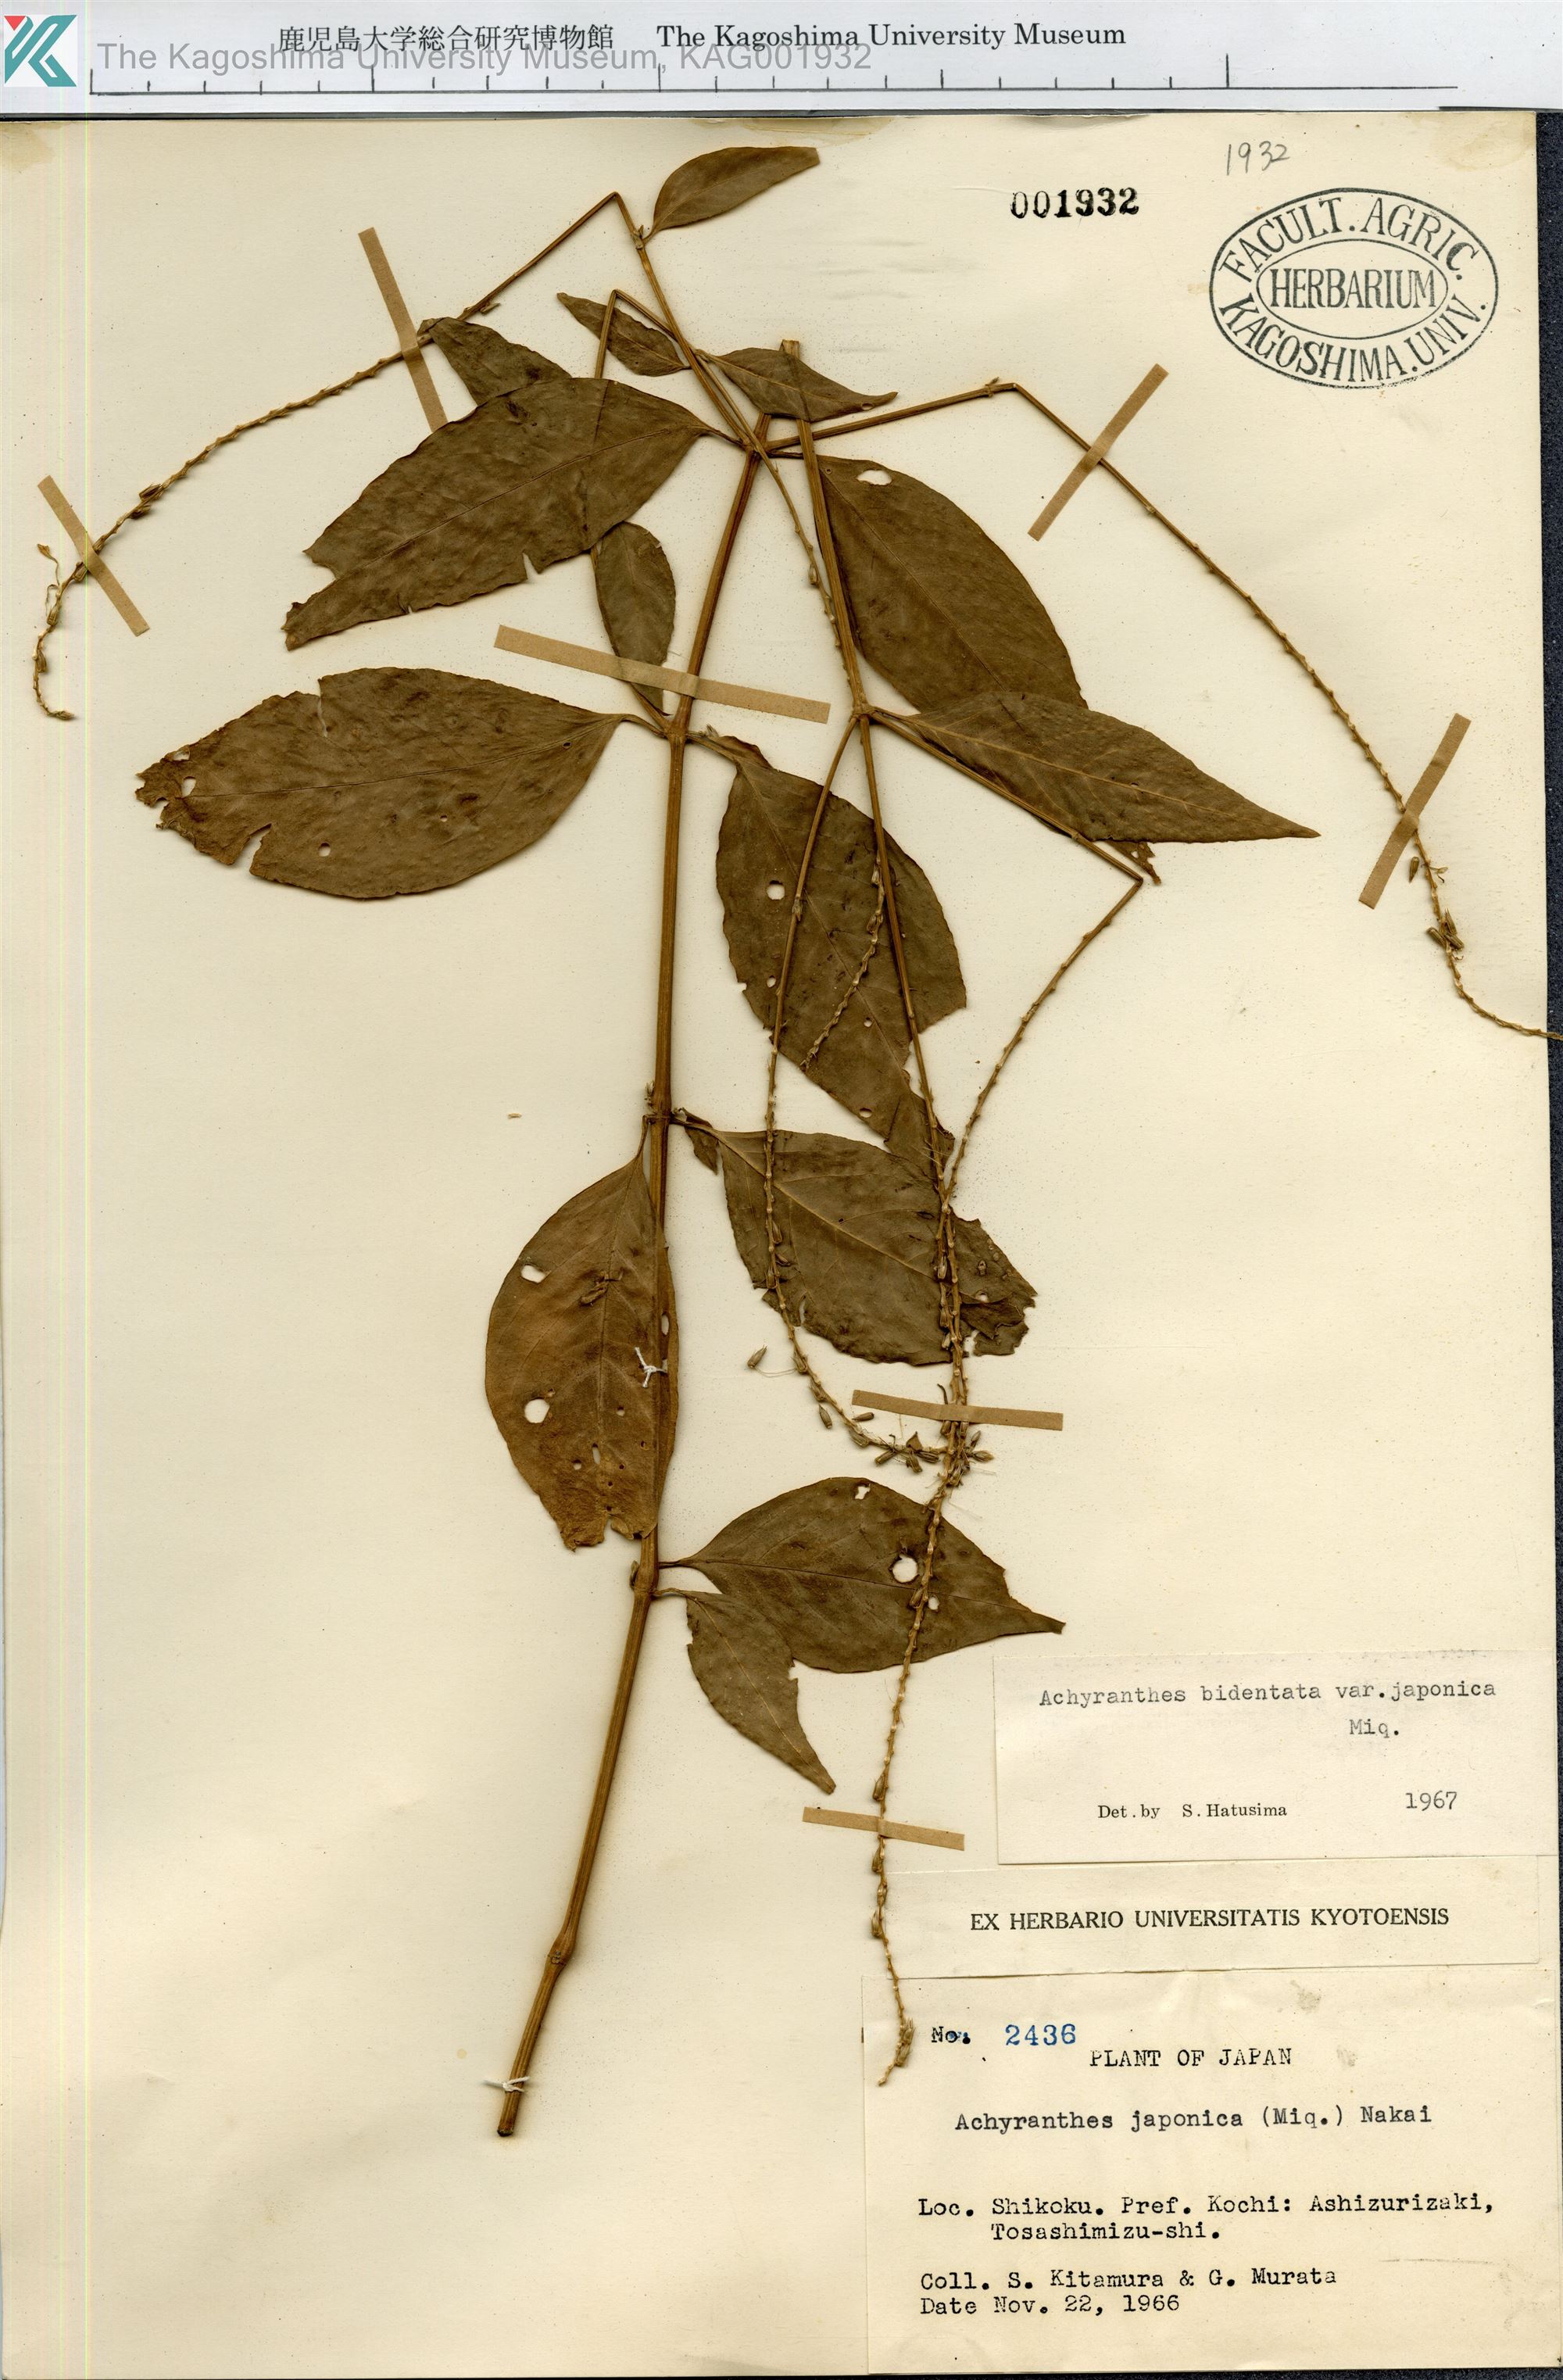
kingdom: Plantae
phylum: Tracheophyta
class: Magnoliopsida
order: Caryophyllales
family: Amaranthaceae
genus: Achyranthes
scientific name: Achyranthes bidentata
